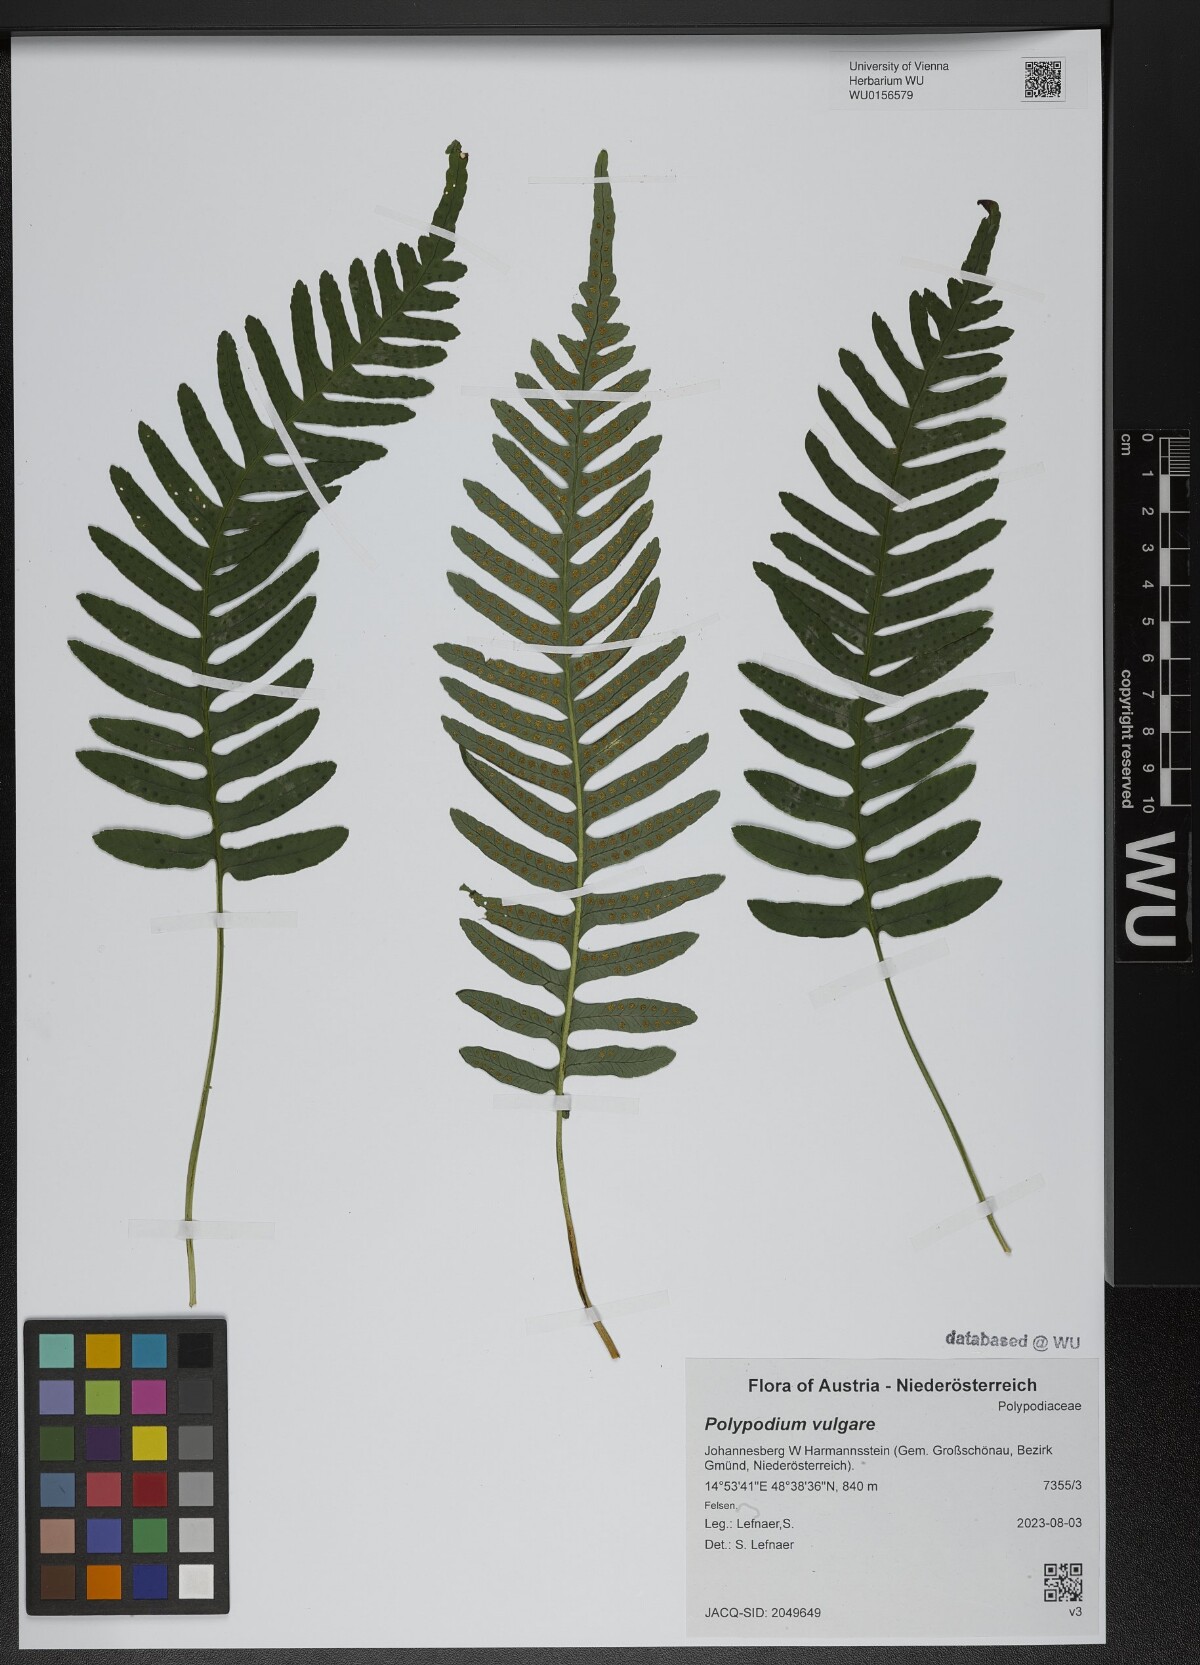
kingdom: Plantae
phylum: Tracheophyta
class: Polypodiopsida
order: Polypodiales
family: Polypodiaceae
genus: Polypodium
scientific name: Polypodium vulgare
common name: Common polypody
